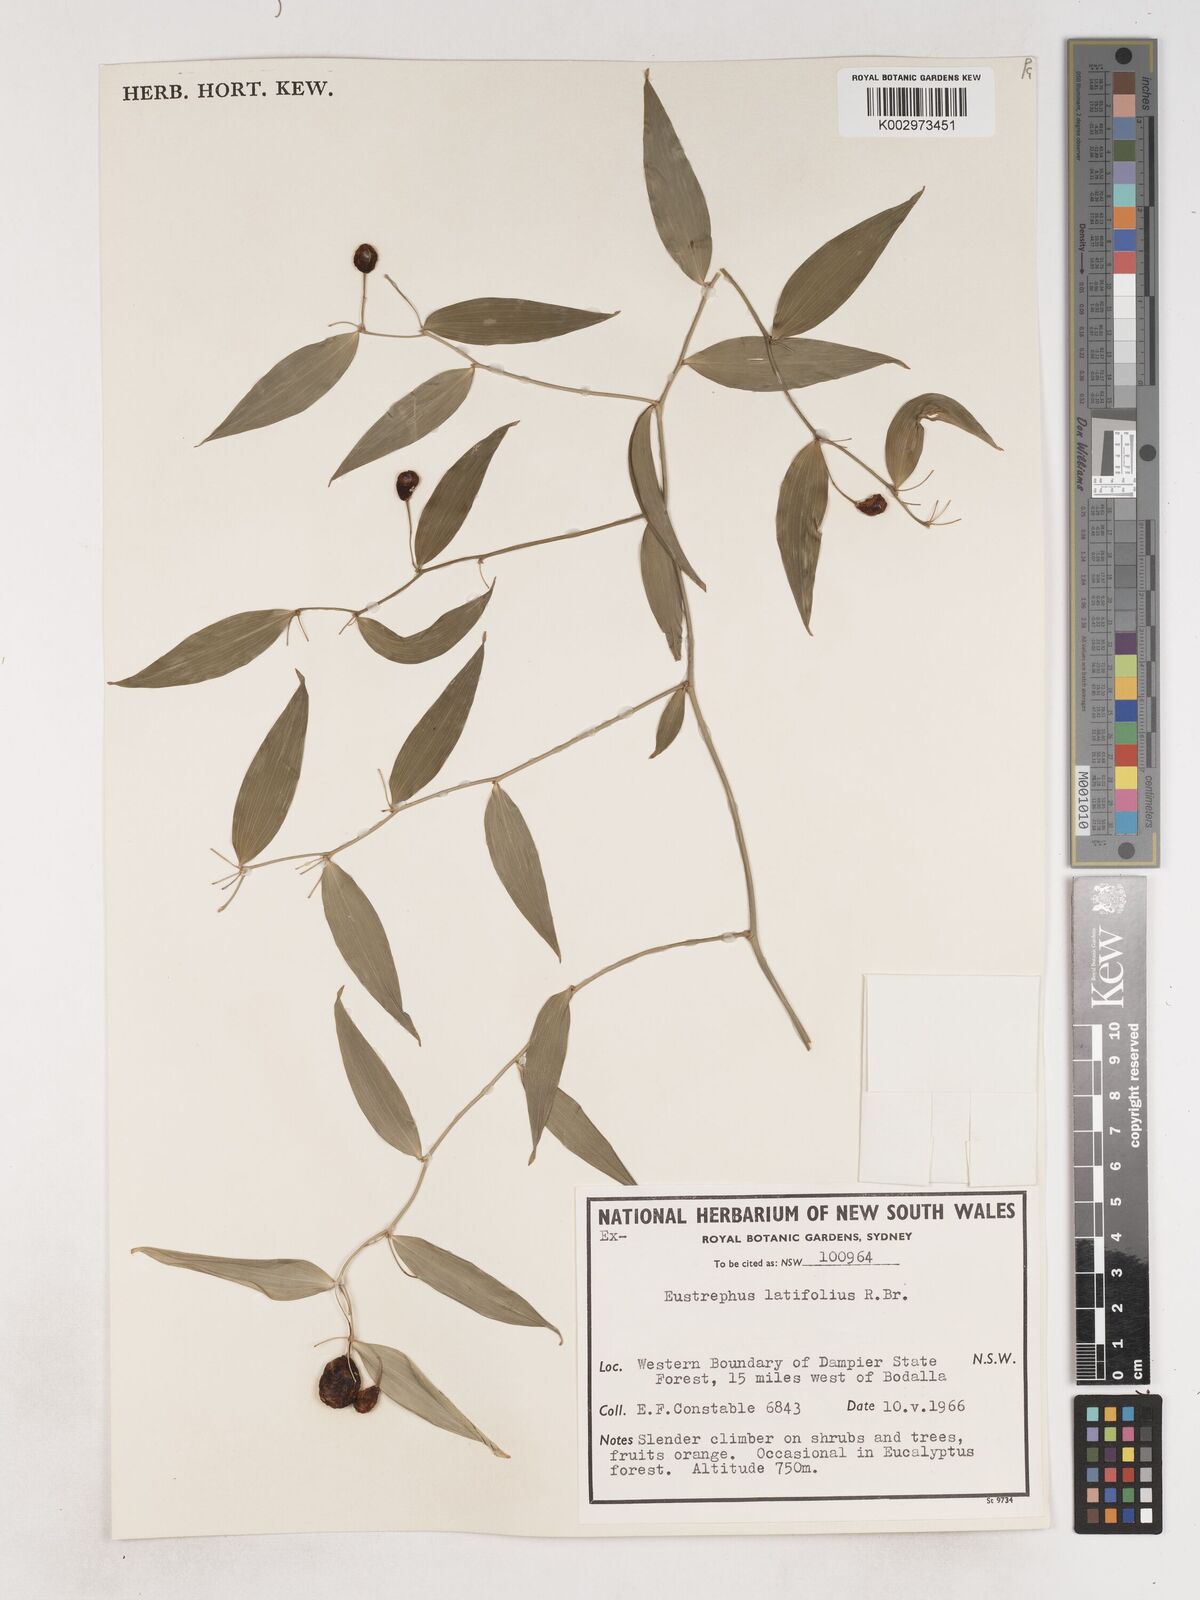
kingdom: Plantae
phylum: Tracheophyta
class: Liliopsida
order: Asparagales
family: Asparagaceae
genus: Eustrephus
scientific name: Eustrephus latifolius
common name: Orangevine
